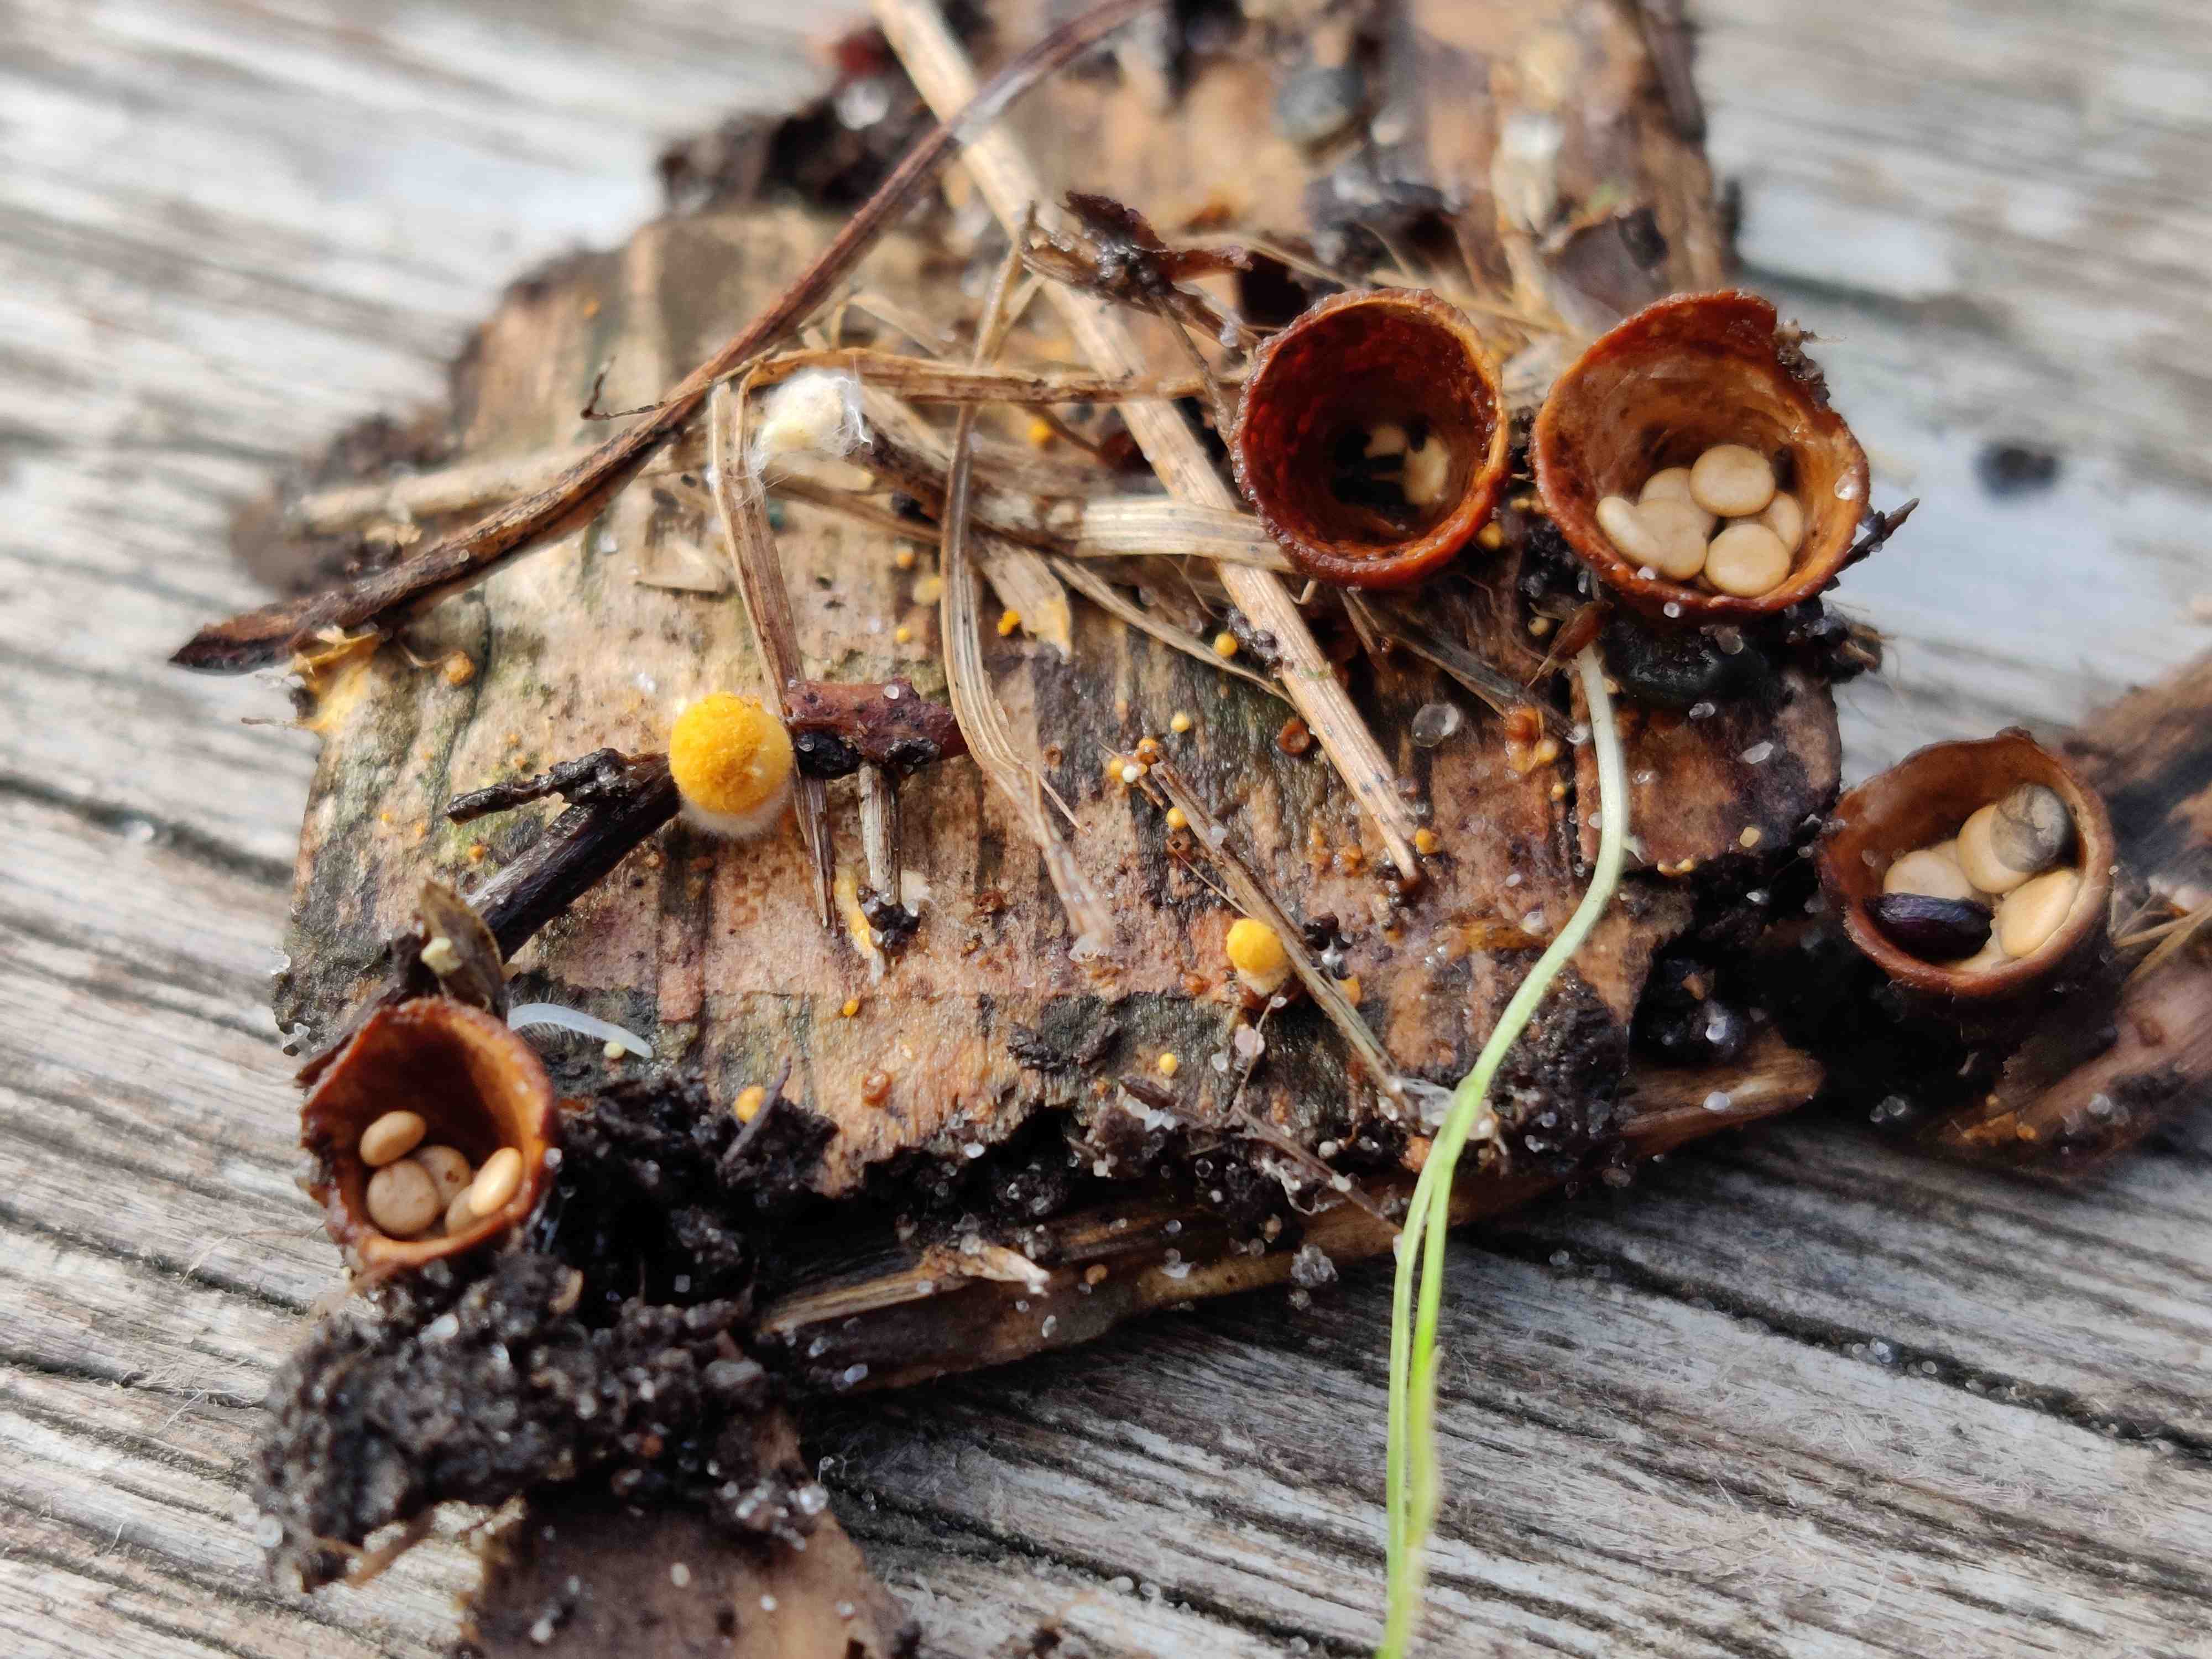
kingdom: Fungi
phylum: Basidiomycota
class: Agaricomycetes
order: Agaricales
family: Nidulariaceae
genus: Crucibulum
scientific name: Crucibulum crucibuliforme
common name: krukkesvamp
